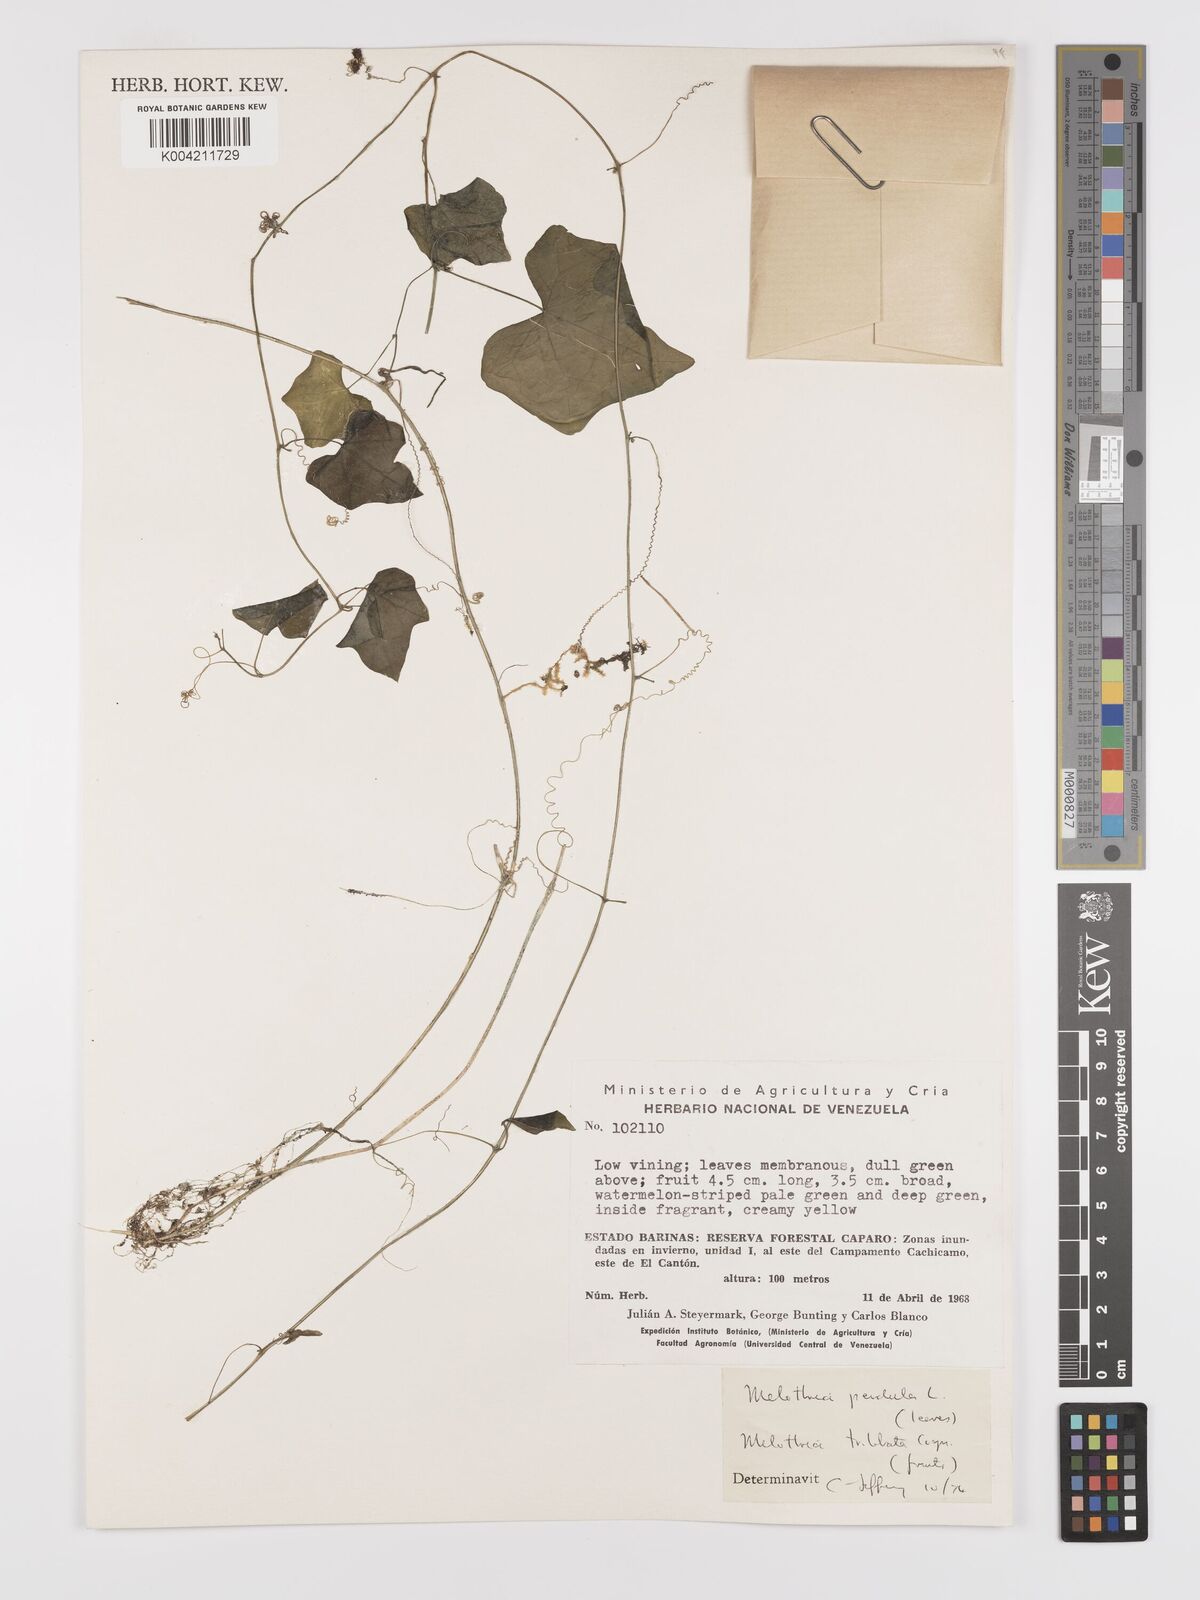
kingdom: Plantae
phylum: Tracheophyta
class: Magnoliopsida
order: Cucurbitales
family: Cucurbitaceae
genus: Melothria
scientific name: Melothria trilobata
